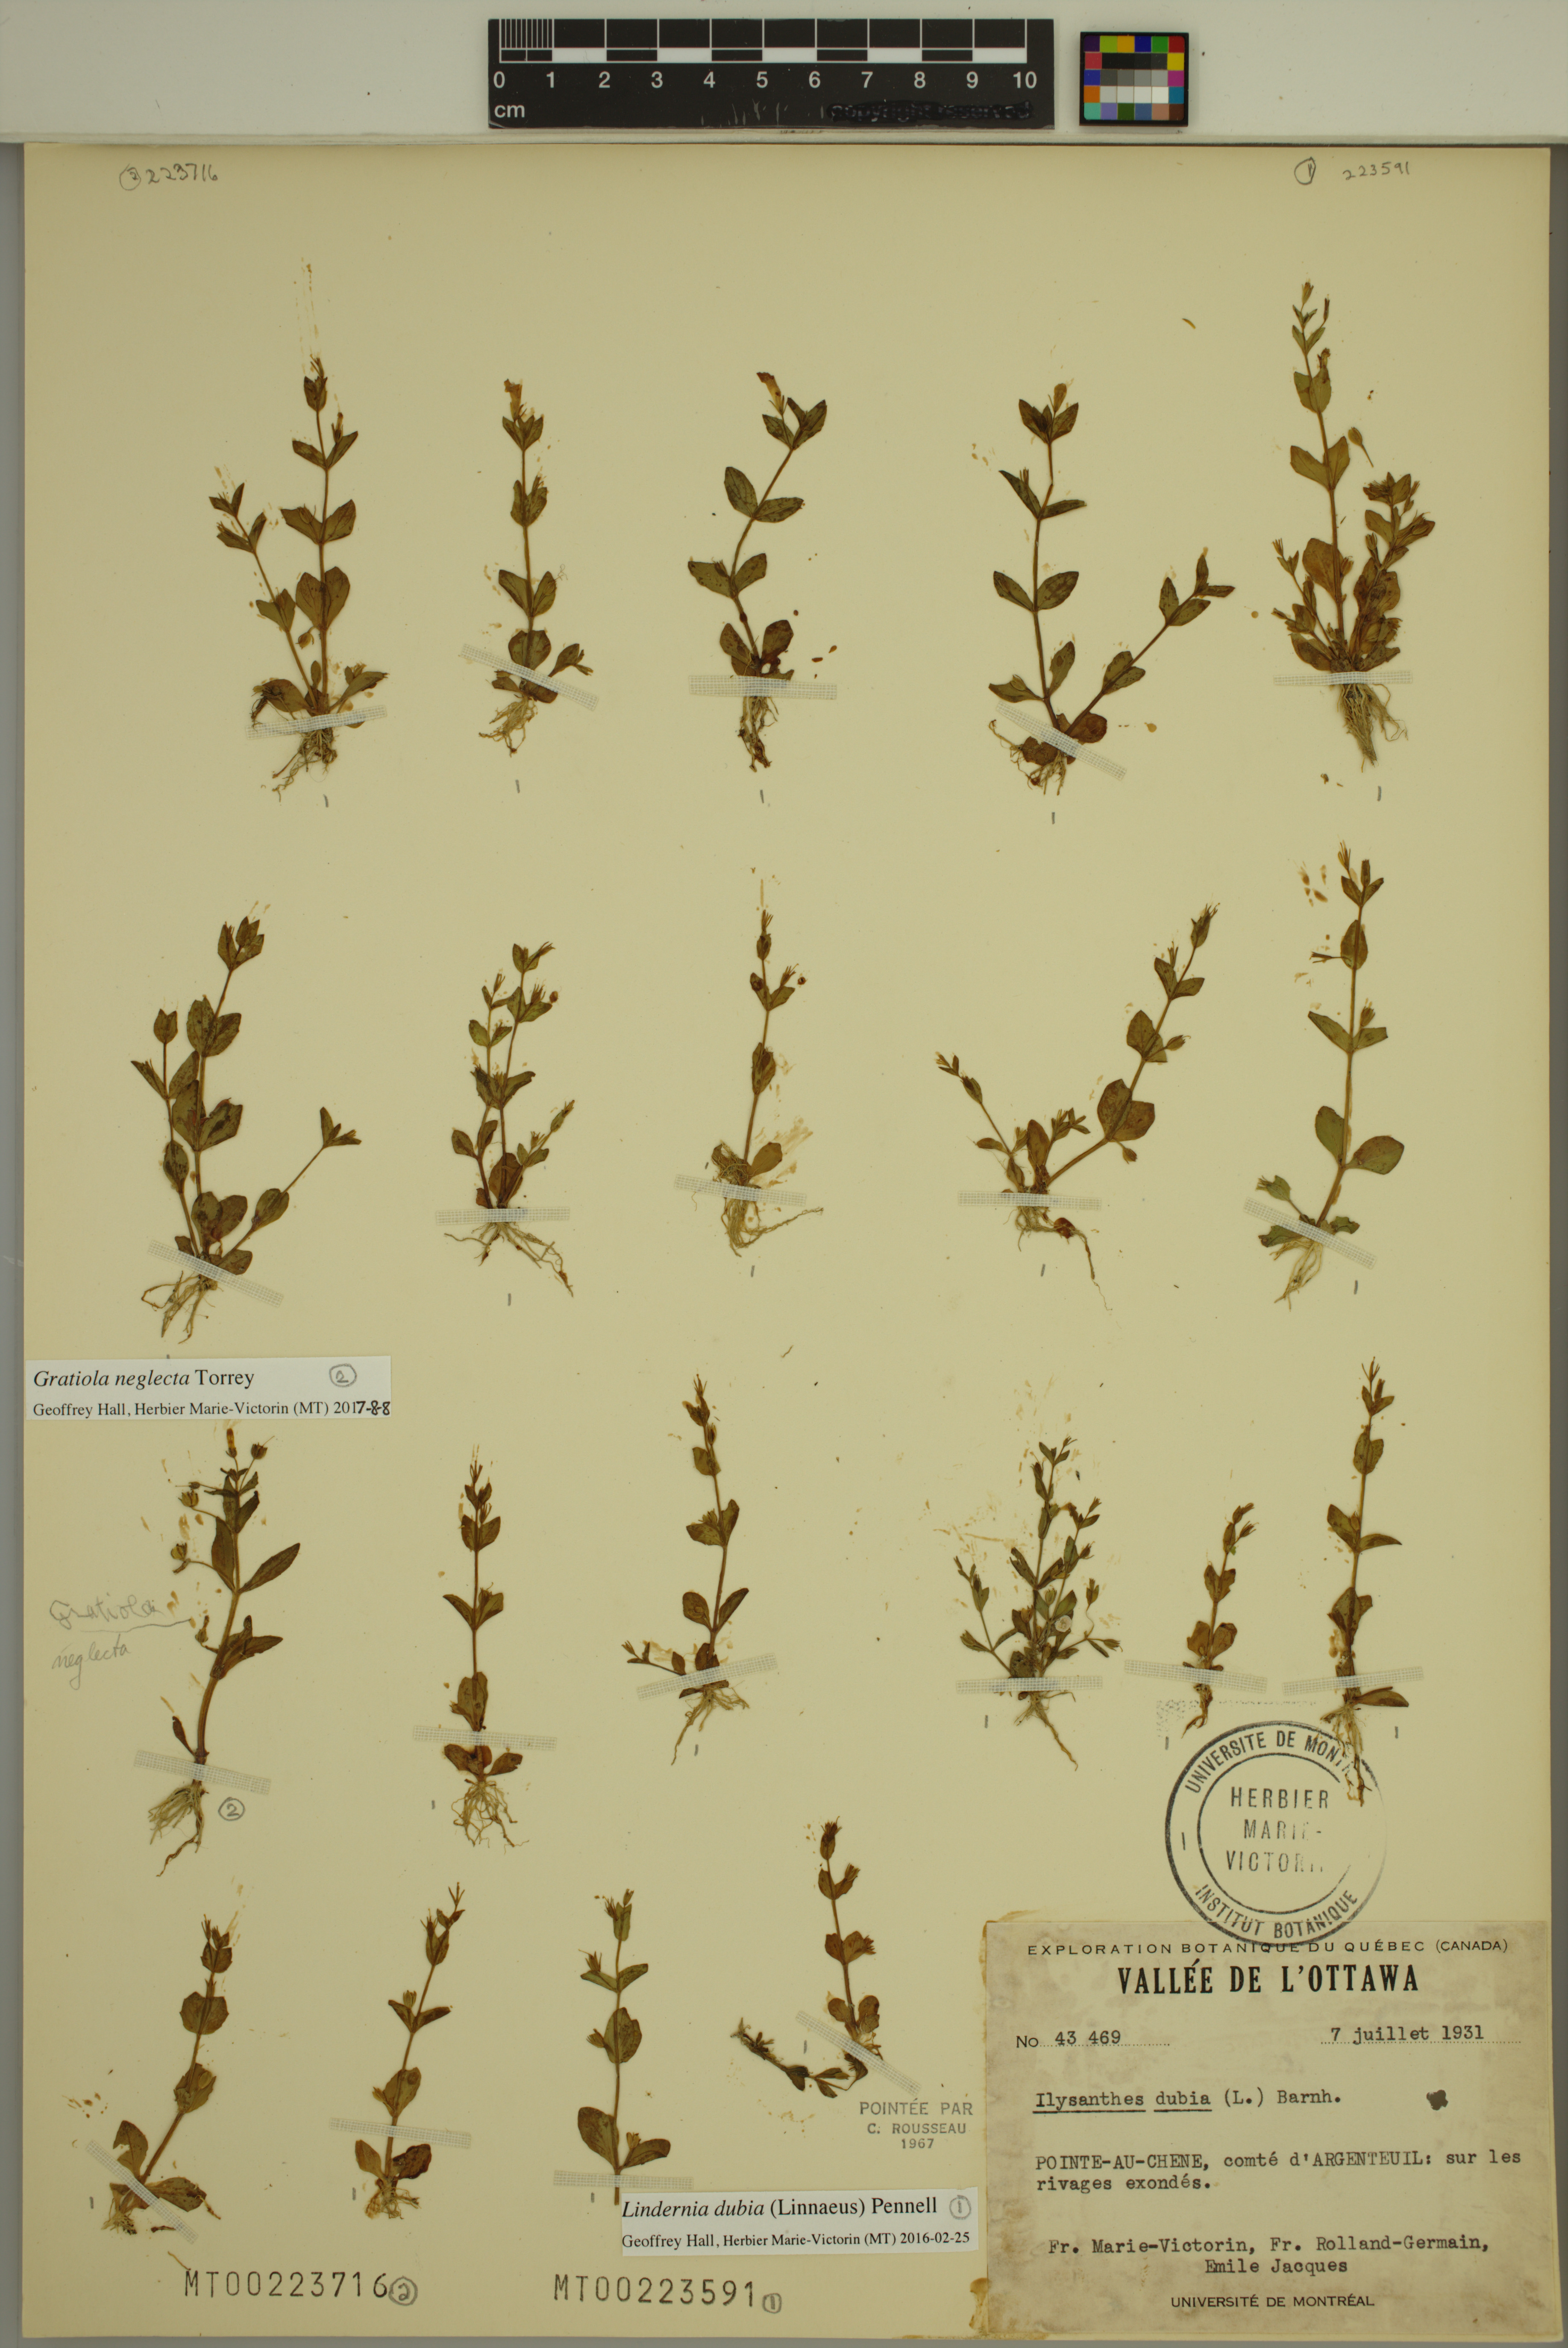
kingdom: Plantae
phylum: Tracheophyta
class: Magnoliopsida
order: Lamiales
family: Plantaginaceae
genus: Gratiola
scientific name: Gratiola neglecta
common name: American hedge-hyssop
